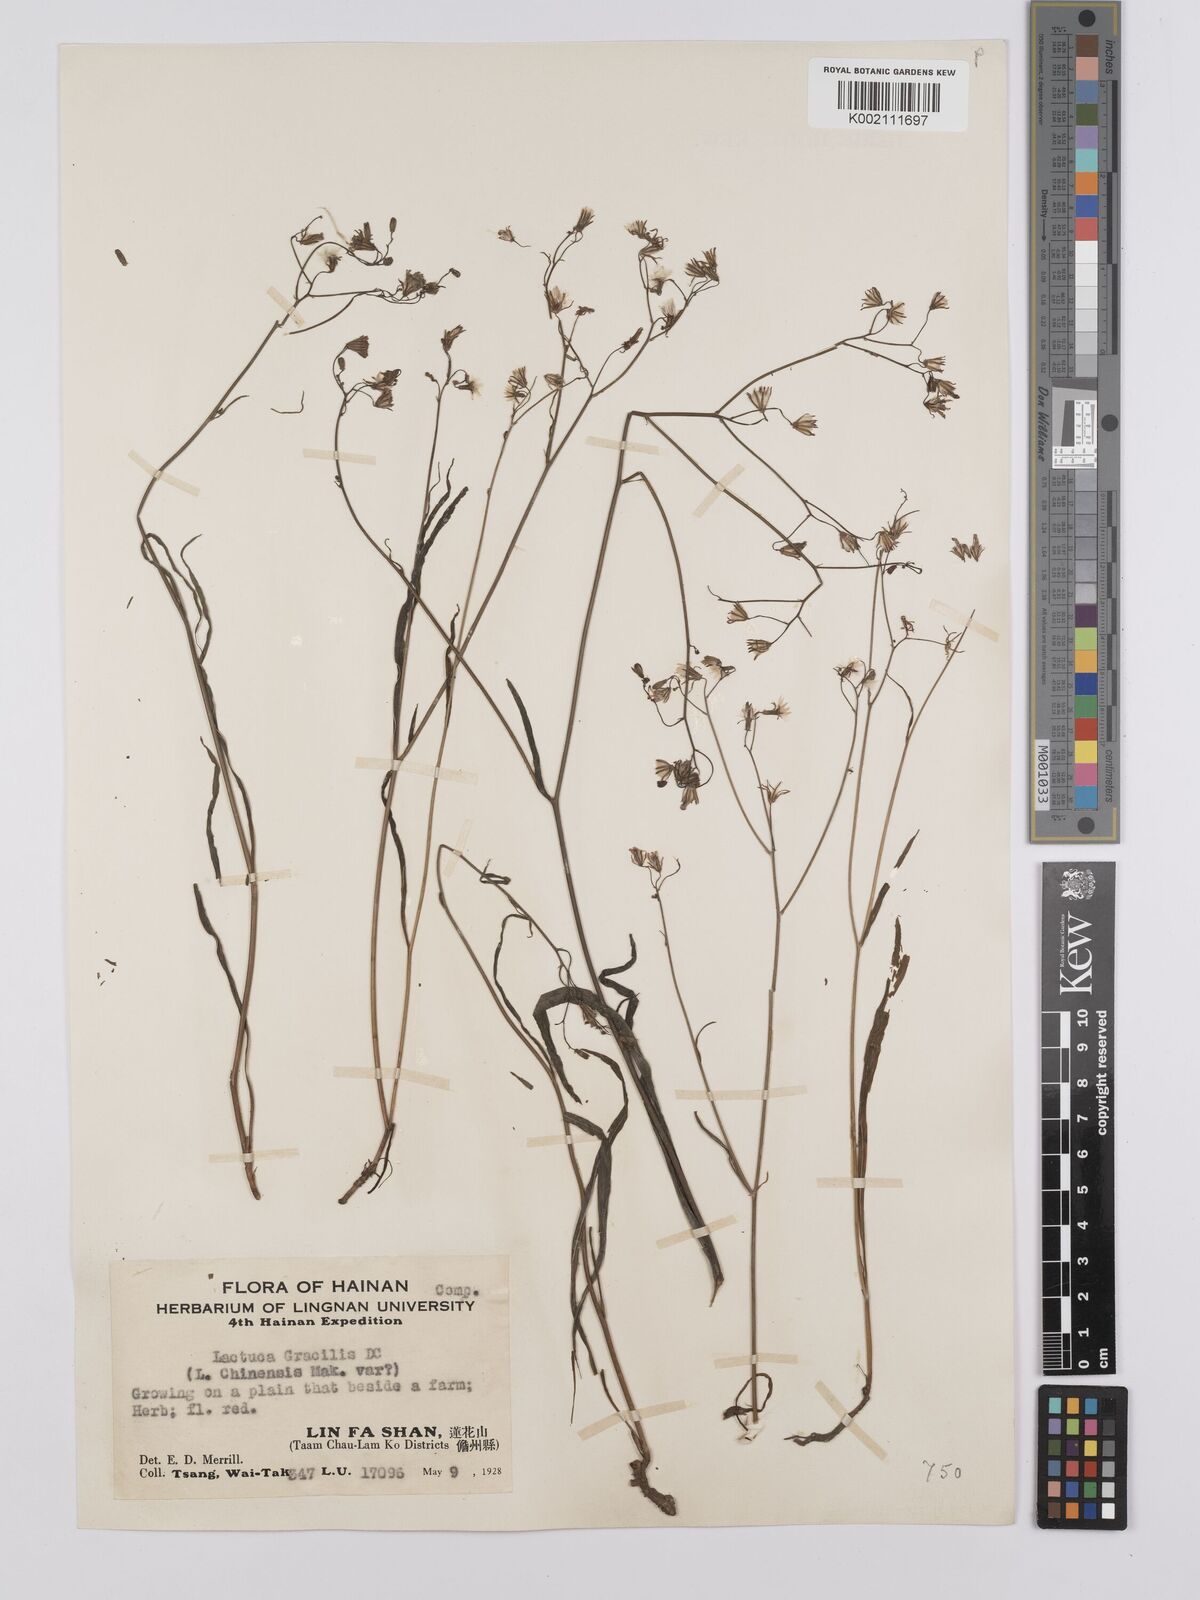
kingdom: Plantae
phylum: Tracheophyta
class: Magnoliopsida
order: Asterales
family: Asteraceae
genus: Ixeridium
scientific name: Ixeridium
